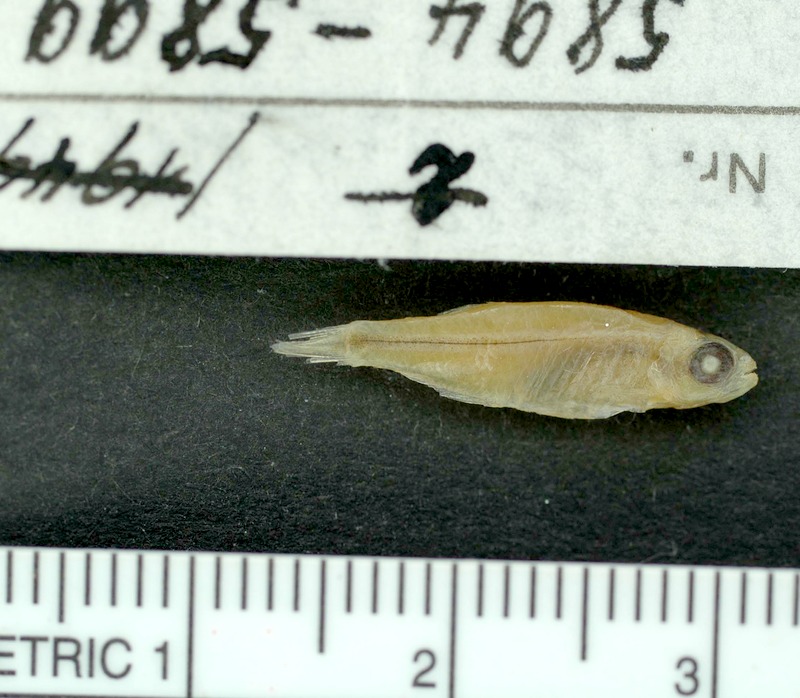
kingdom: Animalia
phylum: Chordata
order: Characiformes
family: Characidae
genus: Tyttocharax
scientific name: Tyttocharax cochui
